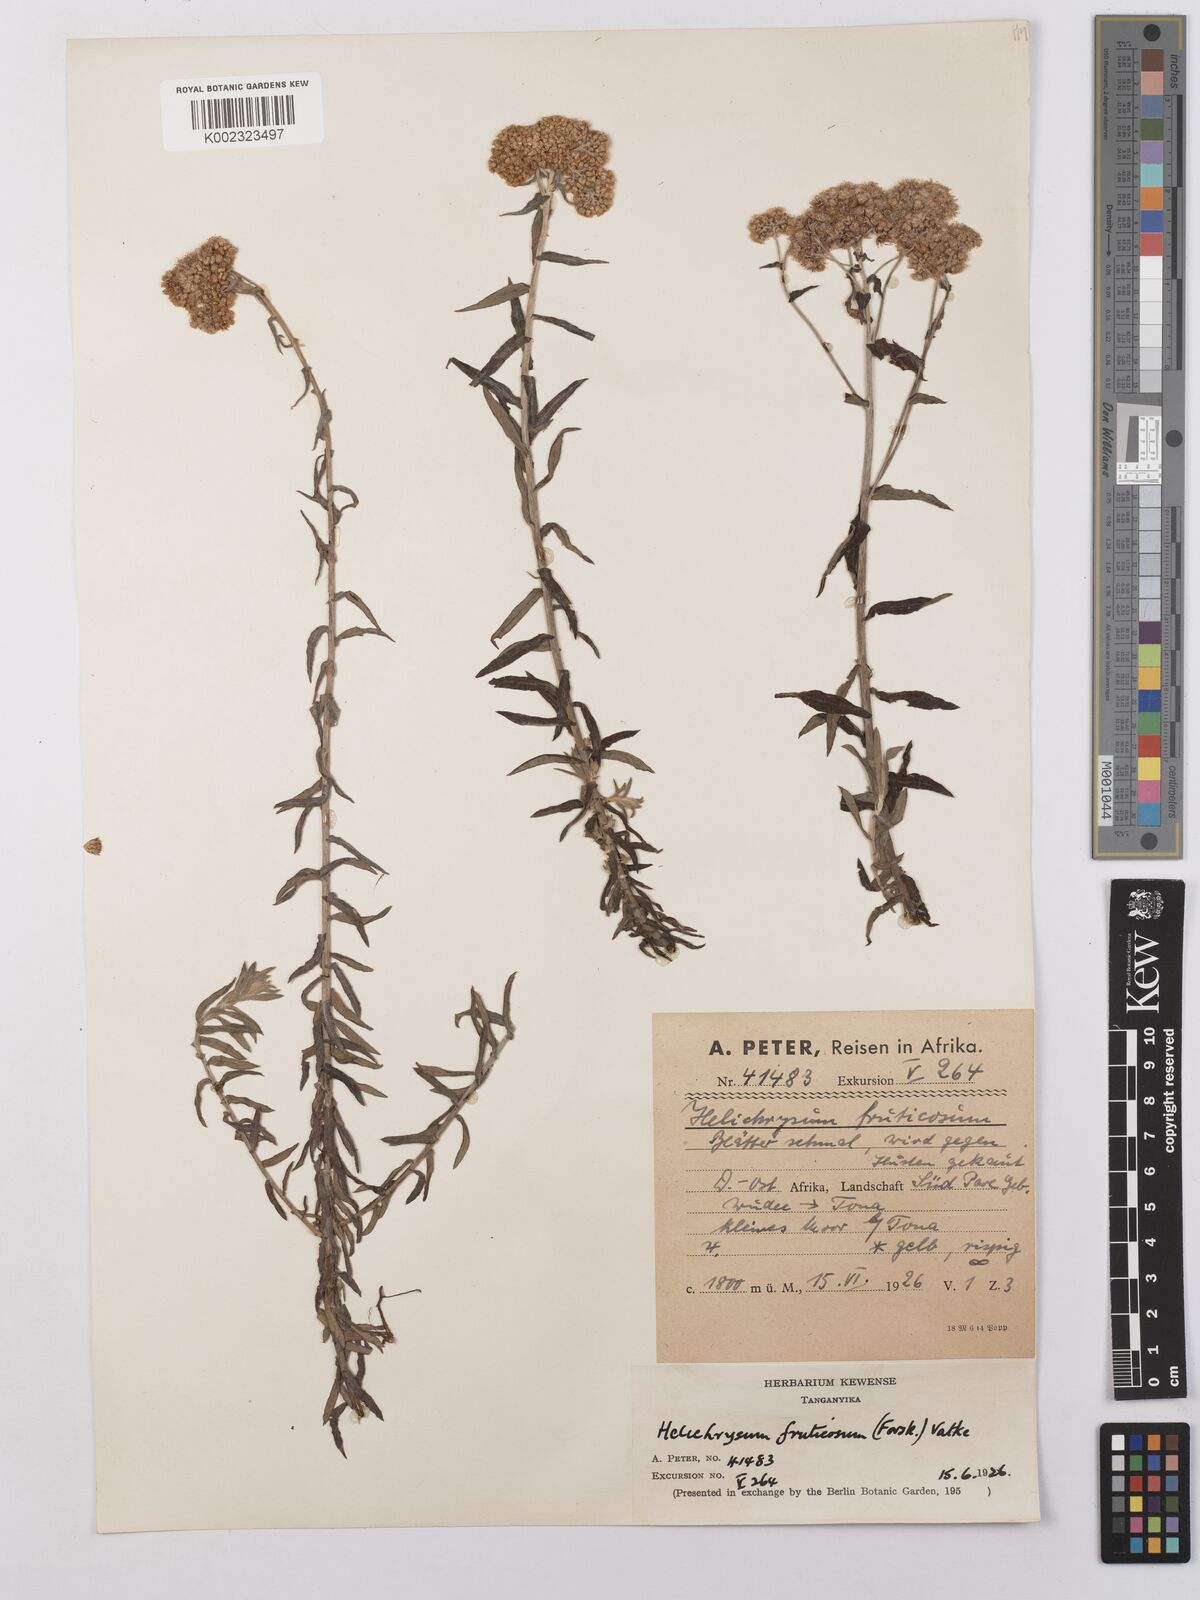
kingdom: Plantae
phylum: Tracheophyta
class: Magnoliopsida
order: Asterales
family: Asteraceae
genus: Helichrysum
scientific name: Helichrysum forskahlii
